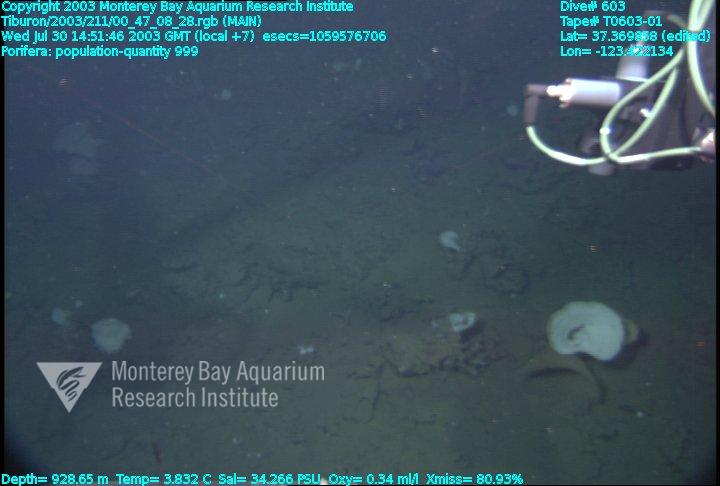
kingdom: Animalia
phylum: Porifera
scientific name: Porifera
